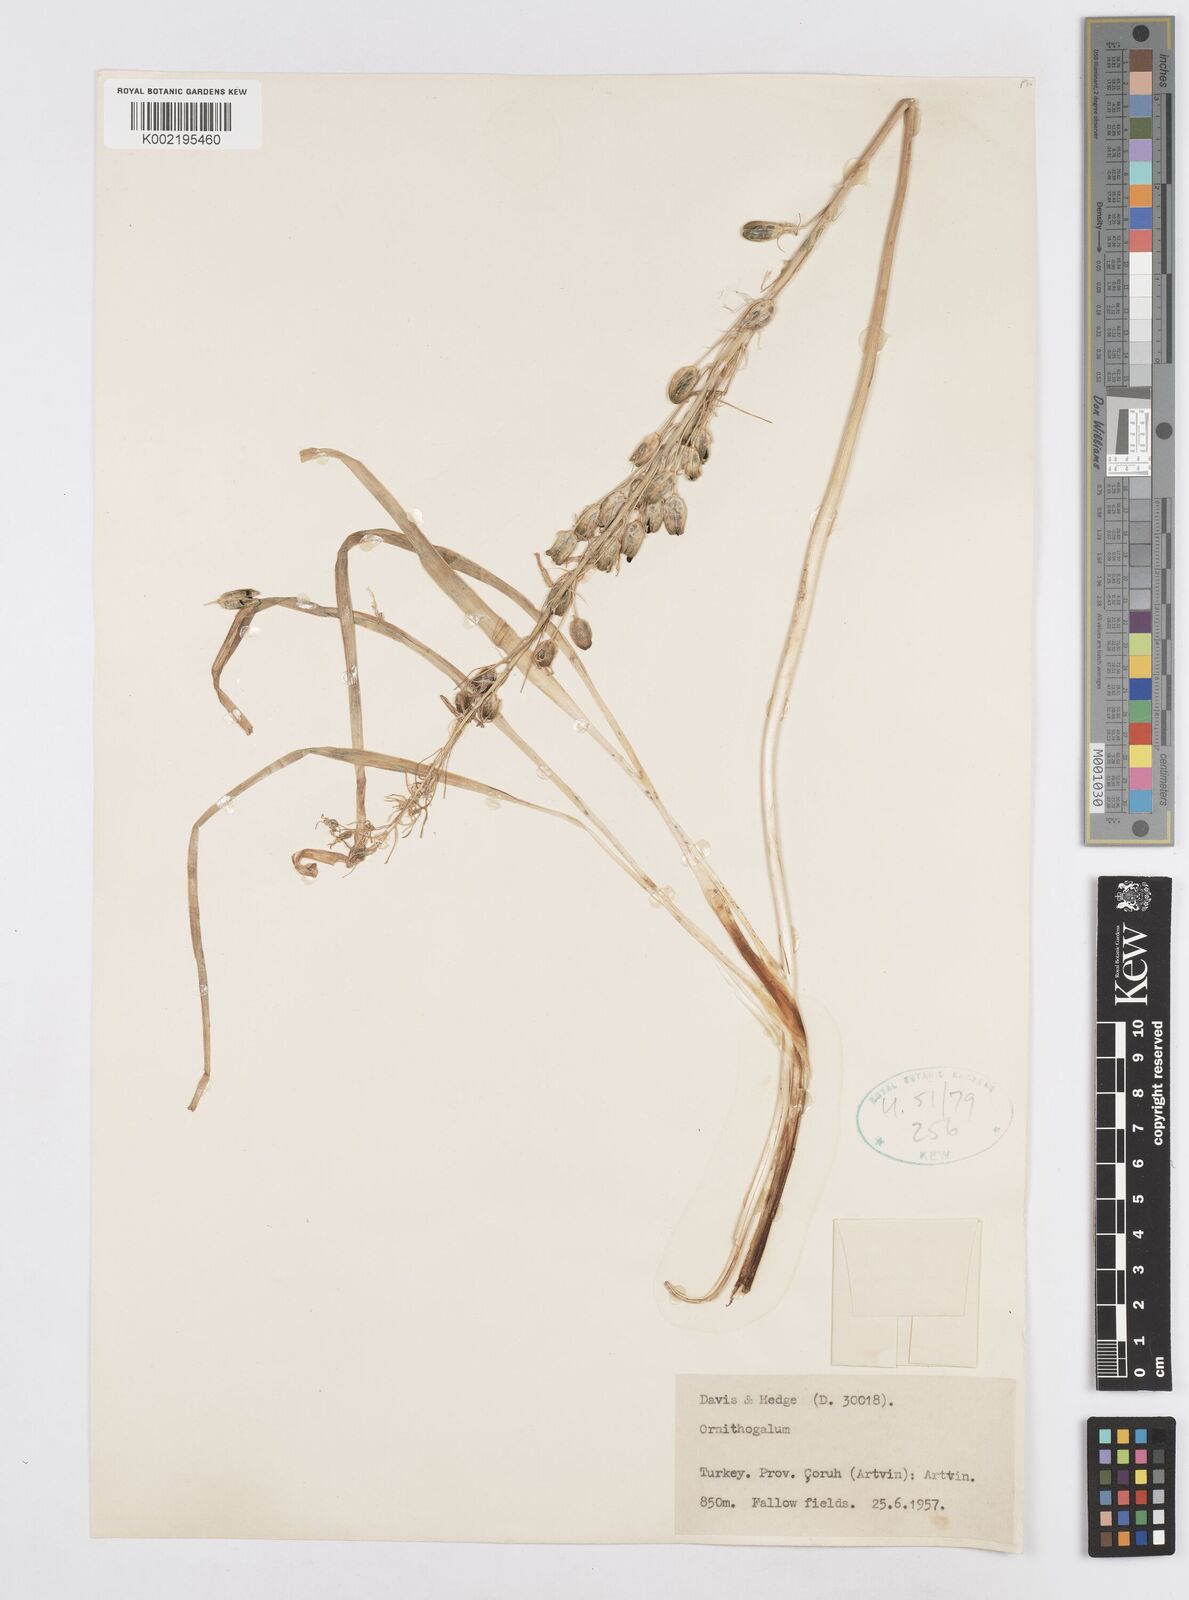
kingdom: Plantae
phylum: Tracheophyta
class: Liliopsida
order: Asparagales
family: Asparagaceae
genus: Ornithogalum
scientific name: Ornithogalum
